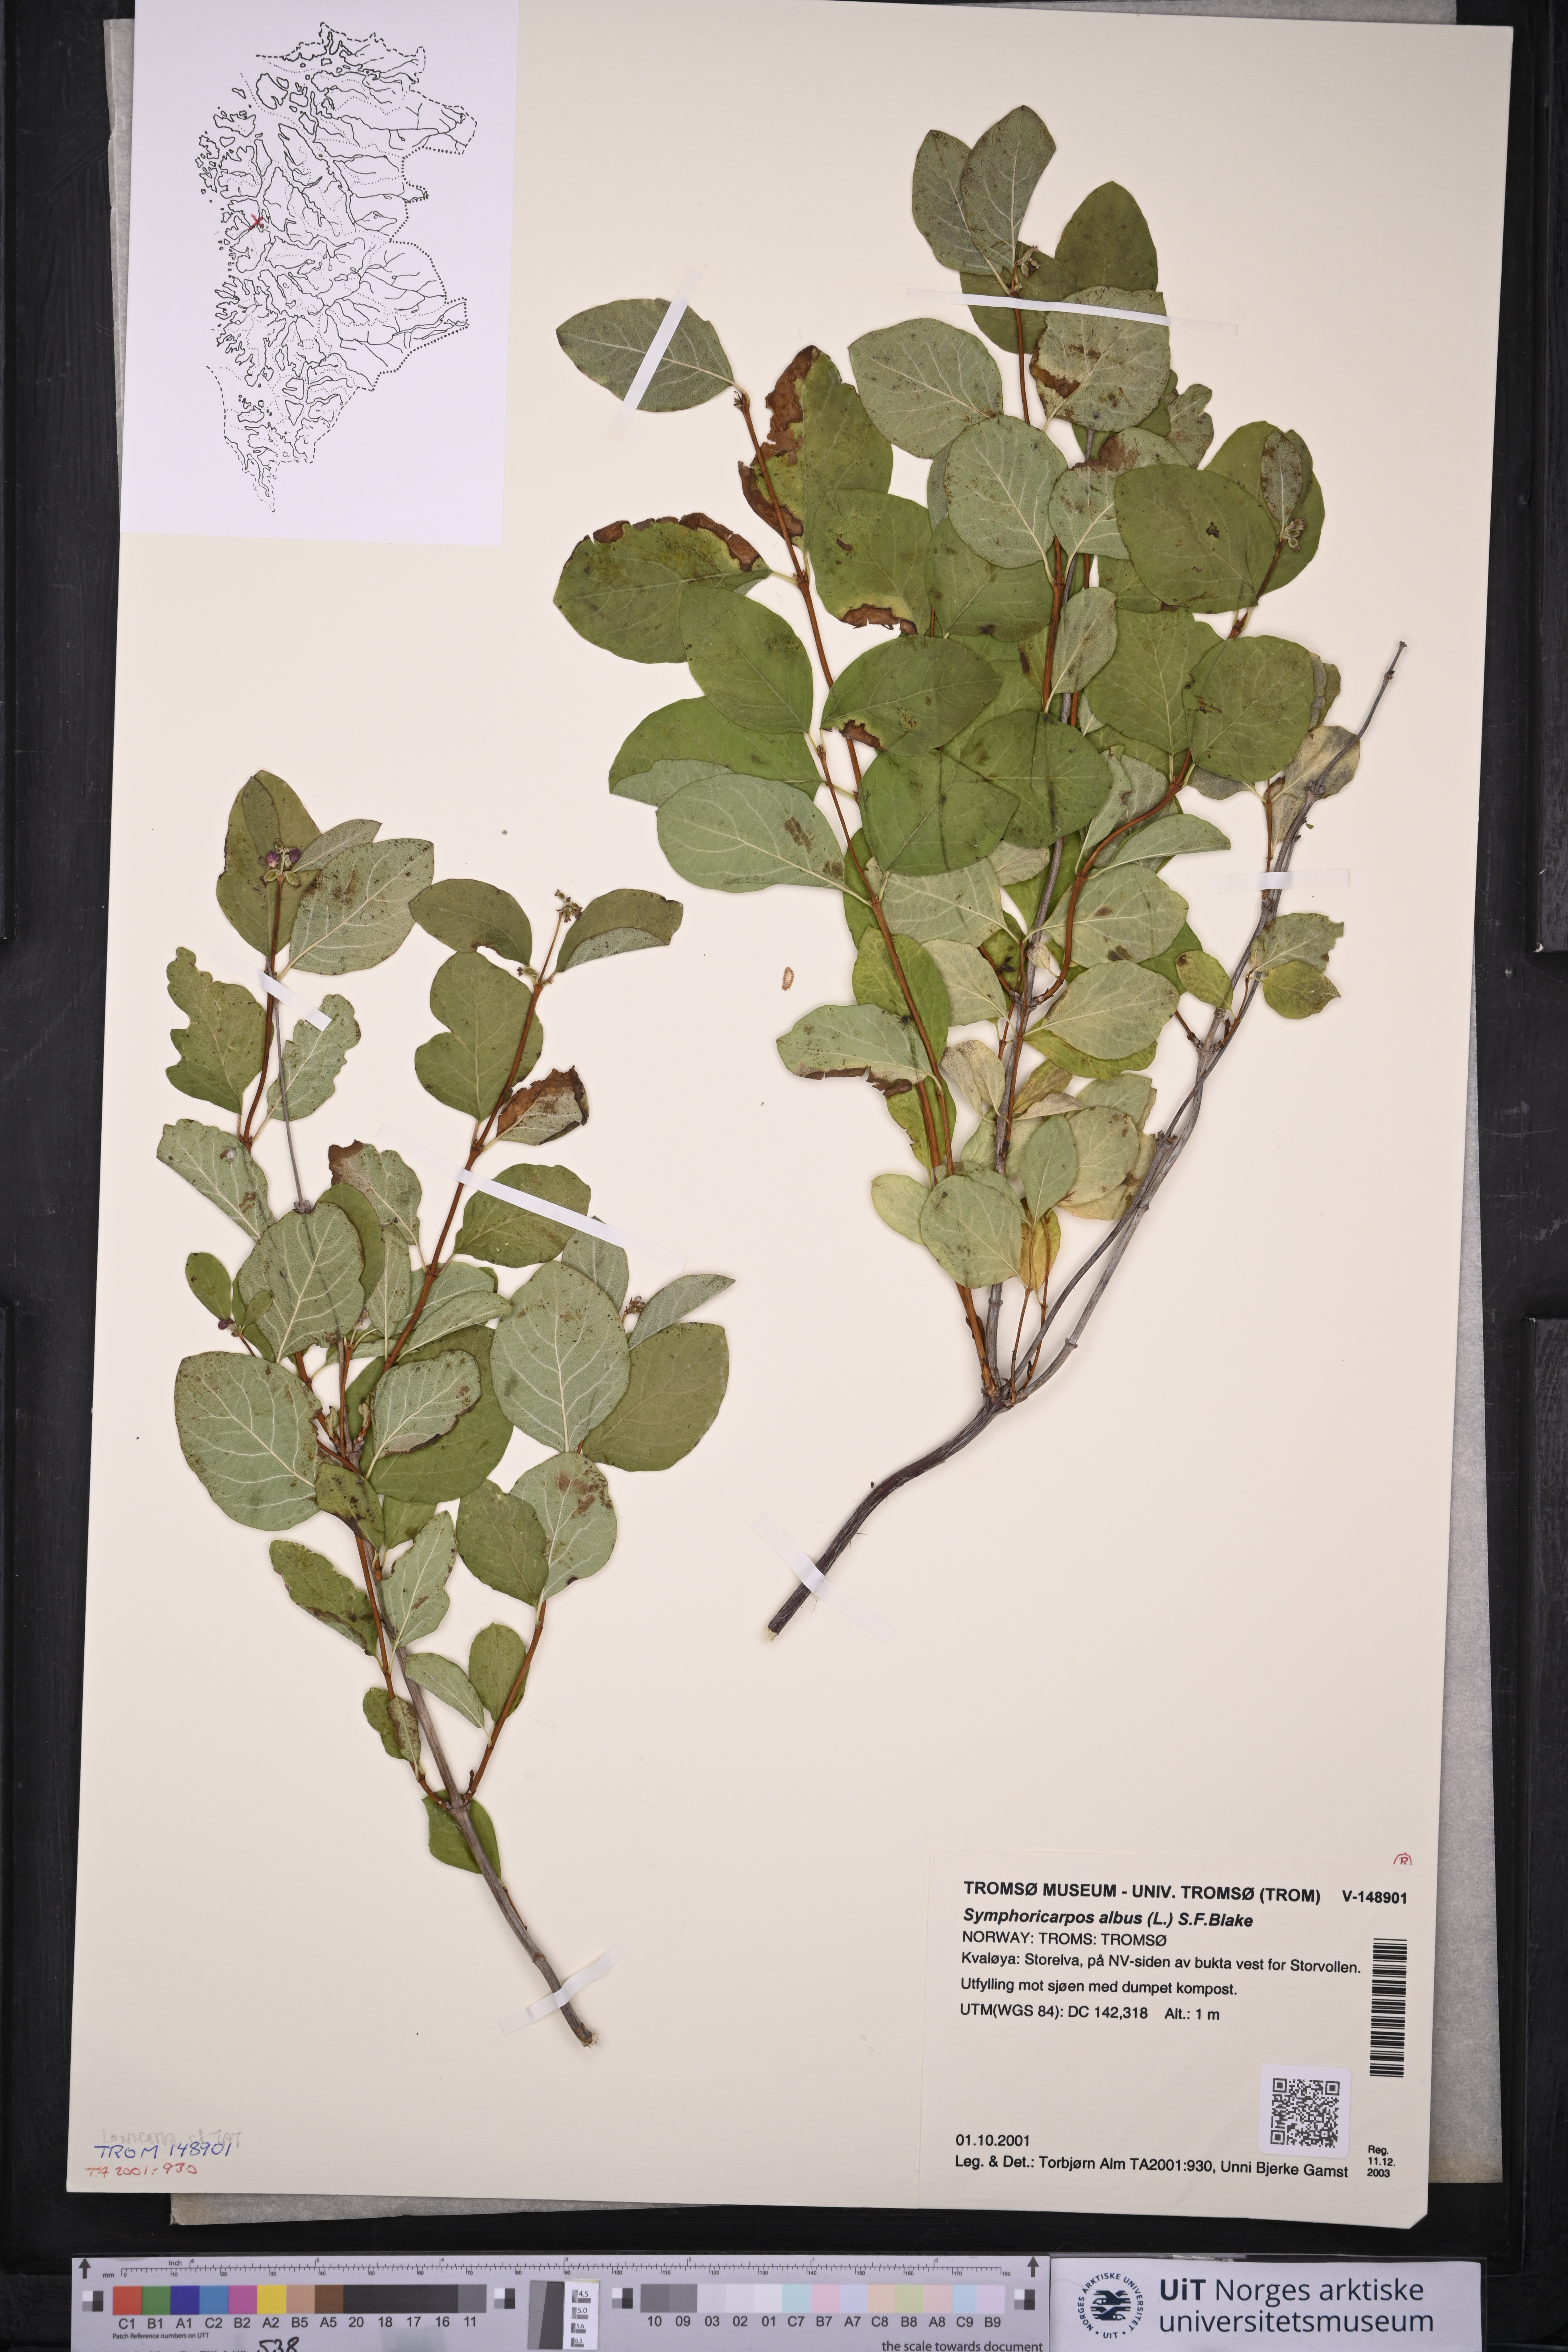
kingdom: Plantae
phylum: Tracheophyta
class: Magnoliopsida
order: Dipsacales
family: Caprifoliaceae
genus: Symphoricarpos
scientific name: Symphoricarpos albus
